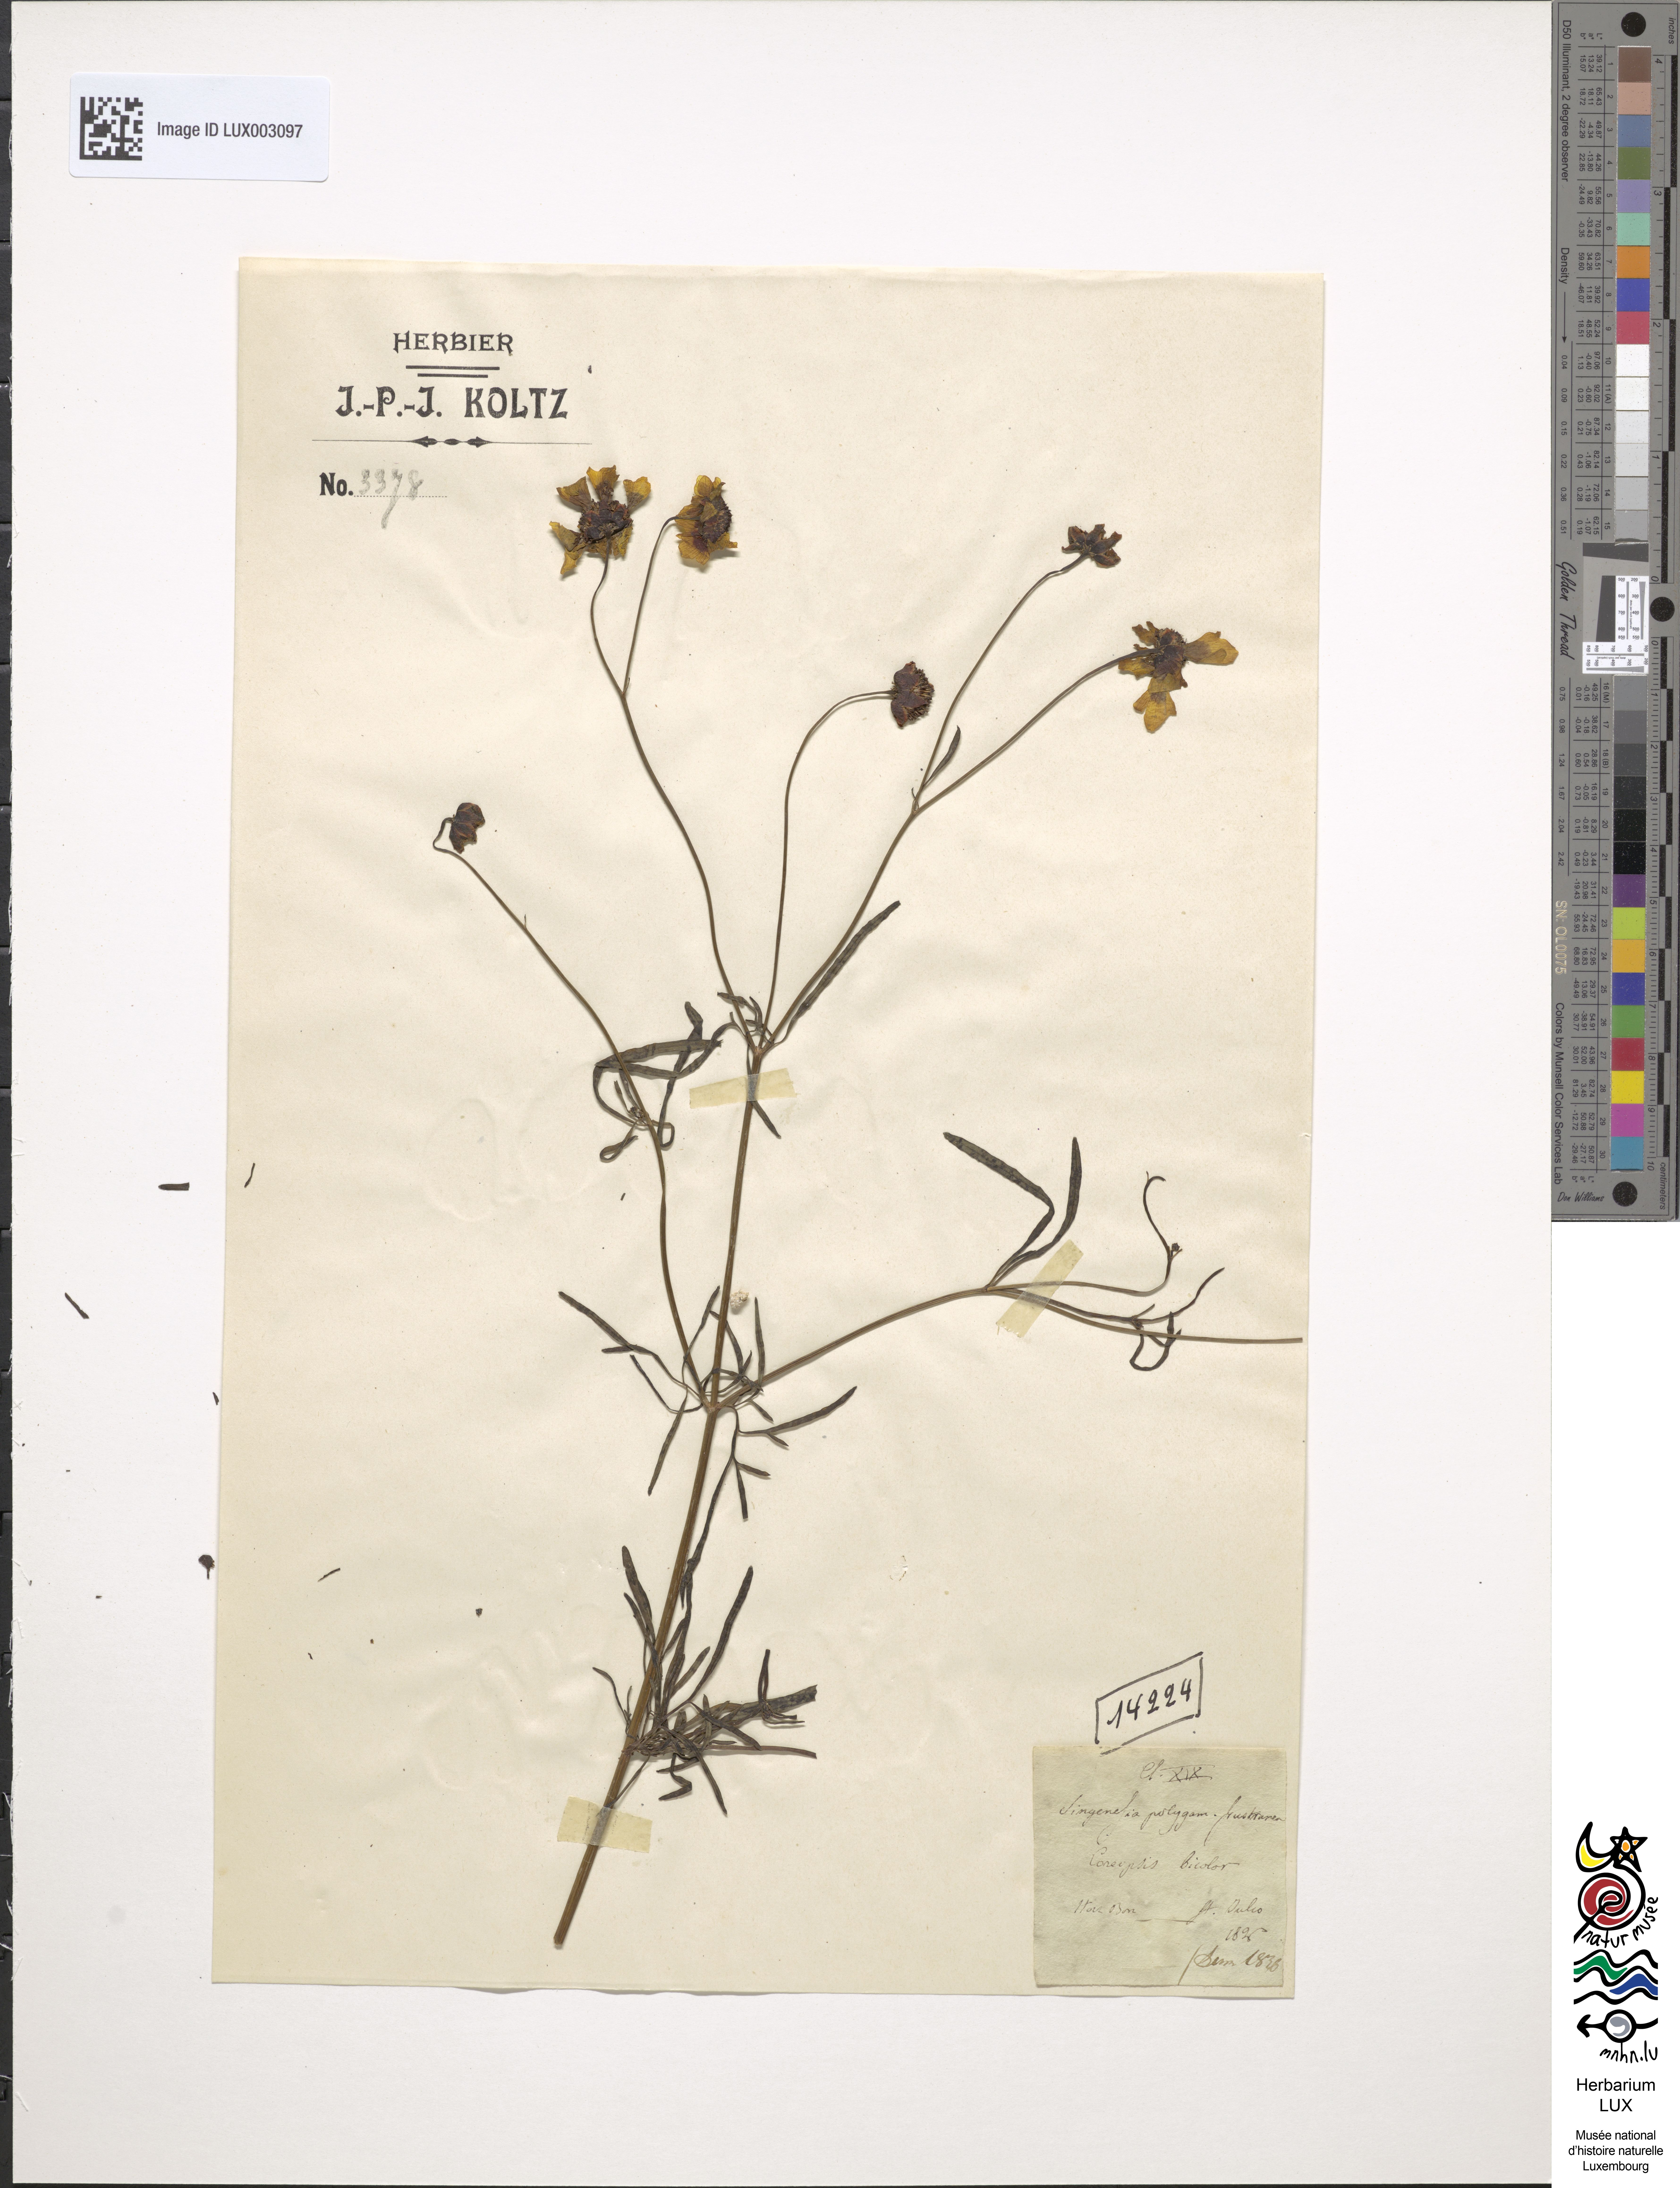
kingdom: Plantae
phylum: Tracheophyta
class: Magnoliopsida
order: Asterales
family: Asteraceae
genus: Coreopsis
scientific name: Coreopsis tinctoria
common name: Garden tickseed
